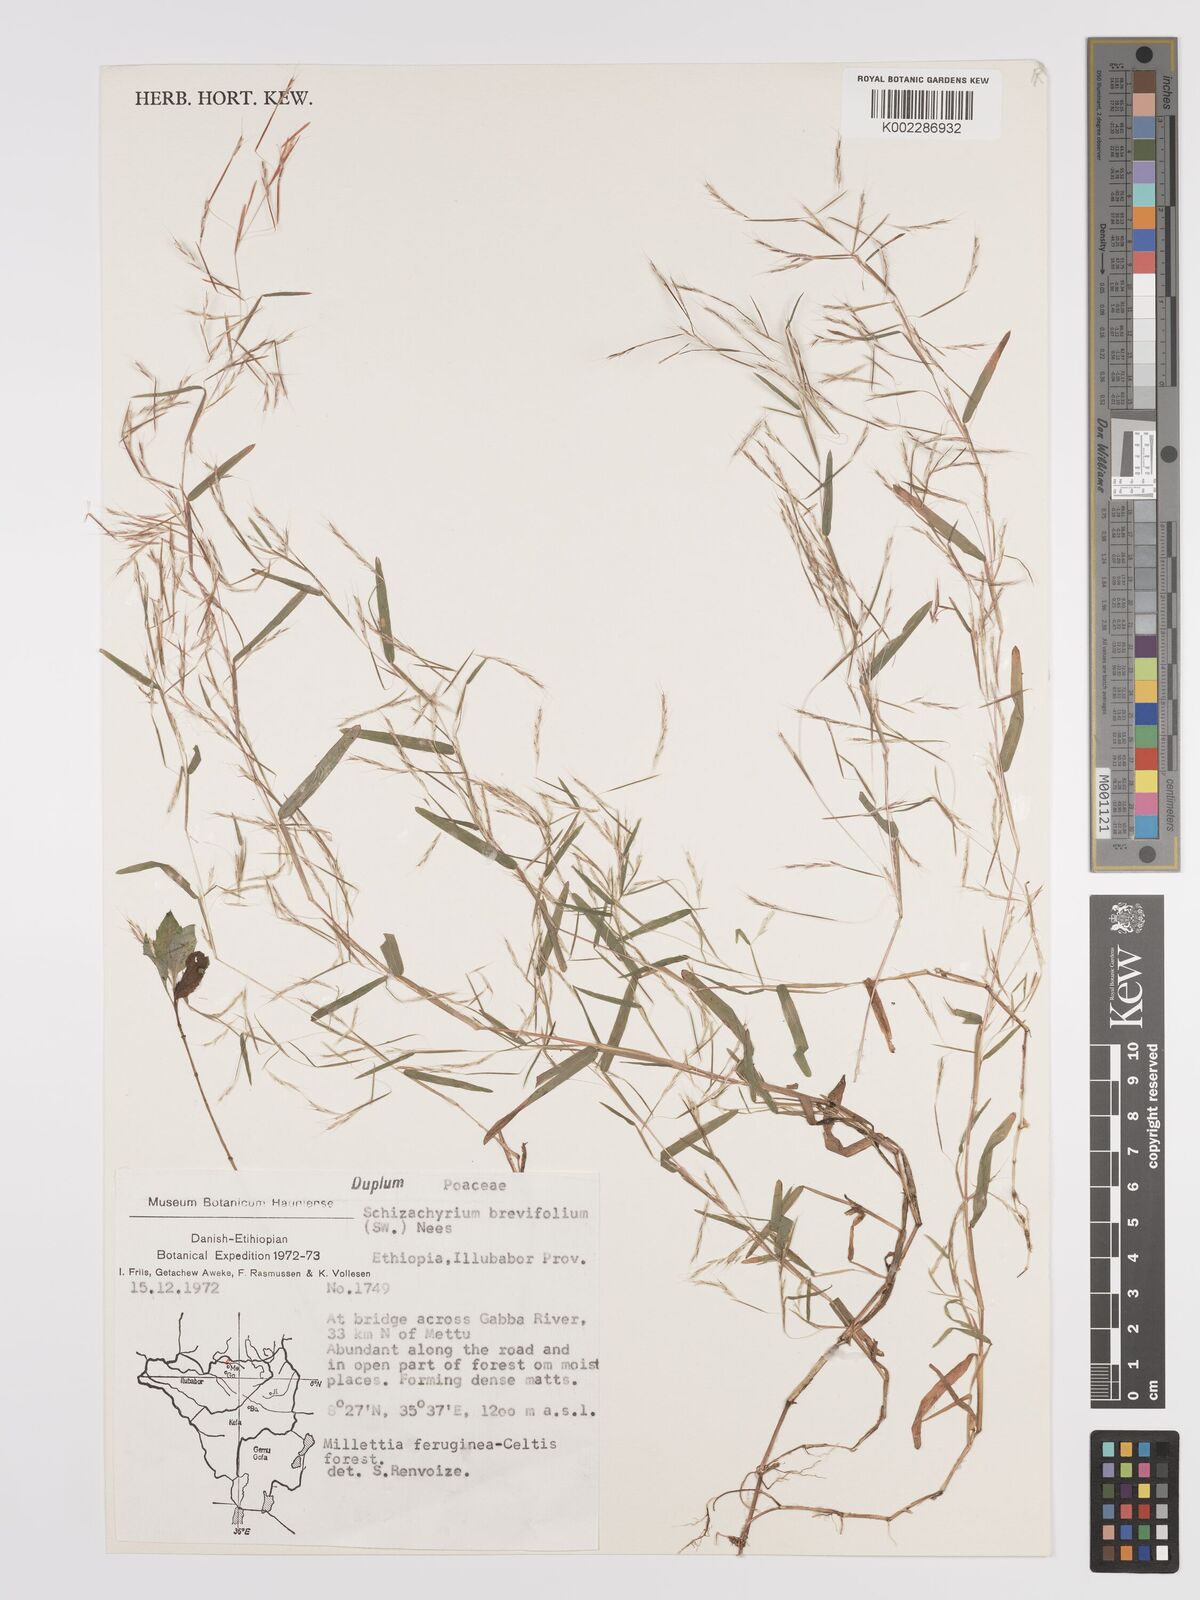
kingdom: Plantae
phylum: Tracheophyta
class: Liliopsida
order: Poales
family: Poaceae
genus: Schizachyrium
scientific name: Schizachyrium brevifolium
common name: Serillo dulce
